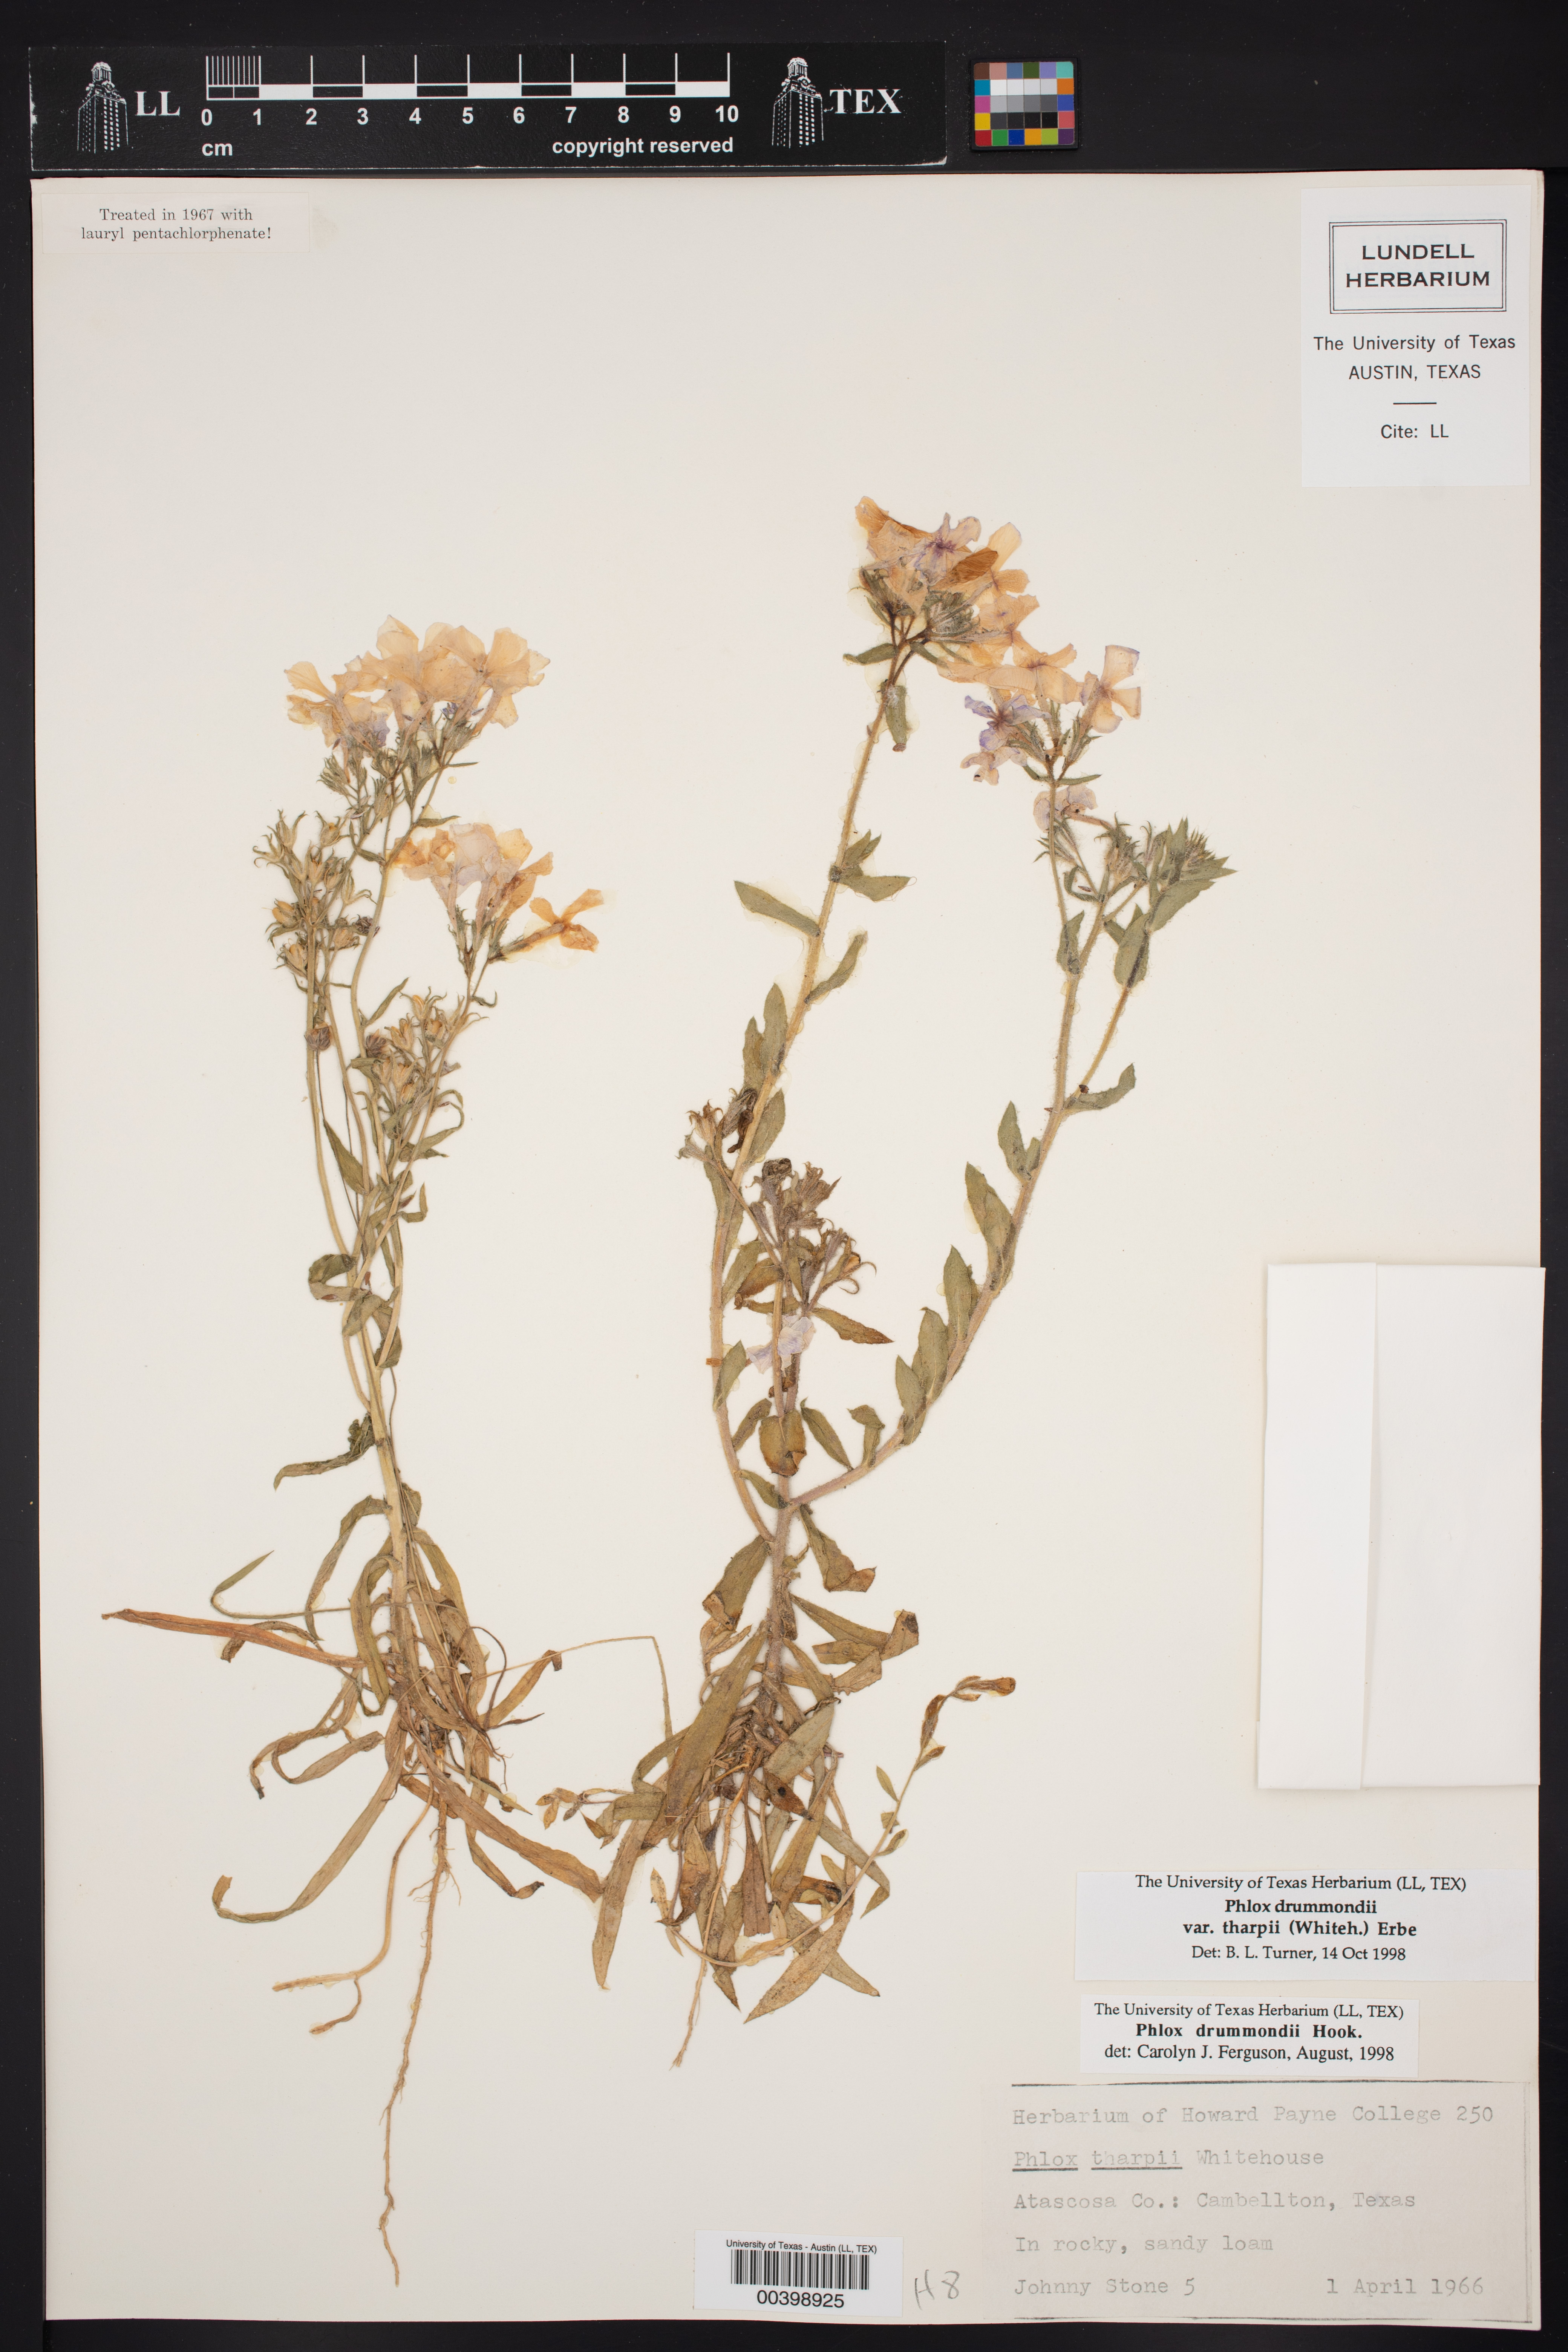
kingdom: Plantae
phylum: Tracheophyta
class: Magnoliopsida
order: Ericales
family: Polemoniaceae
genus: Phlox
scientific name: Phlox drummondii
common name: Drummond's phlox
